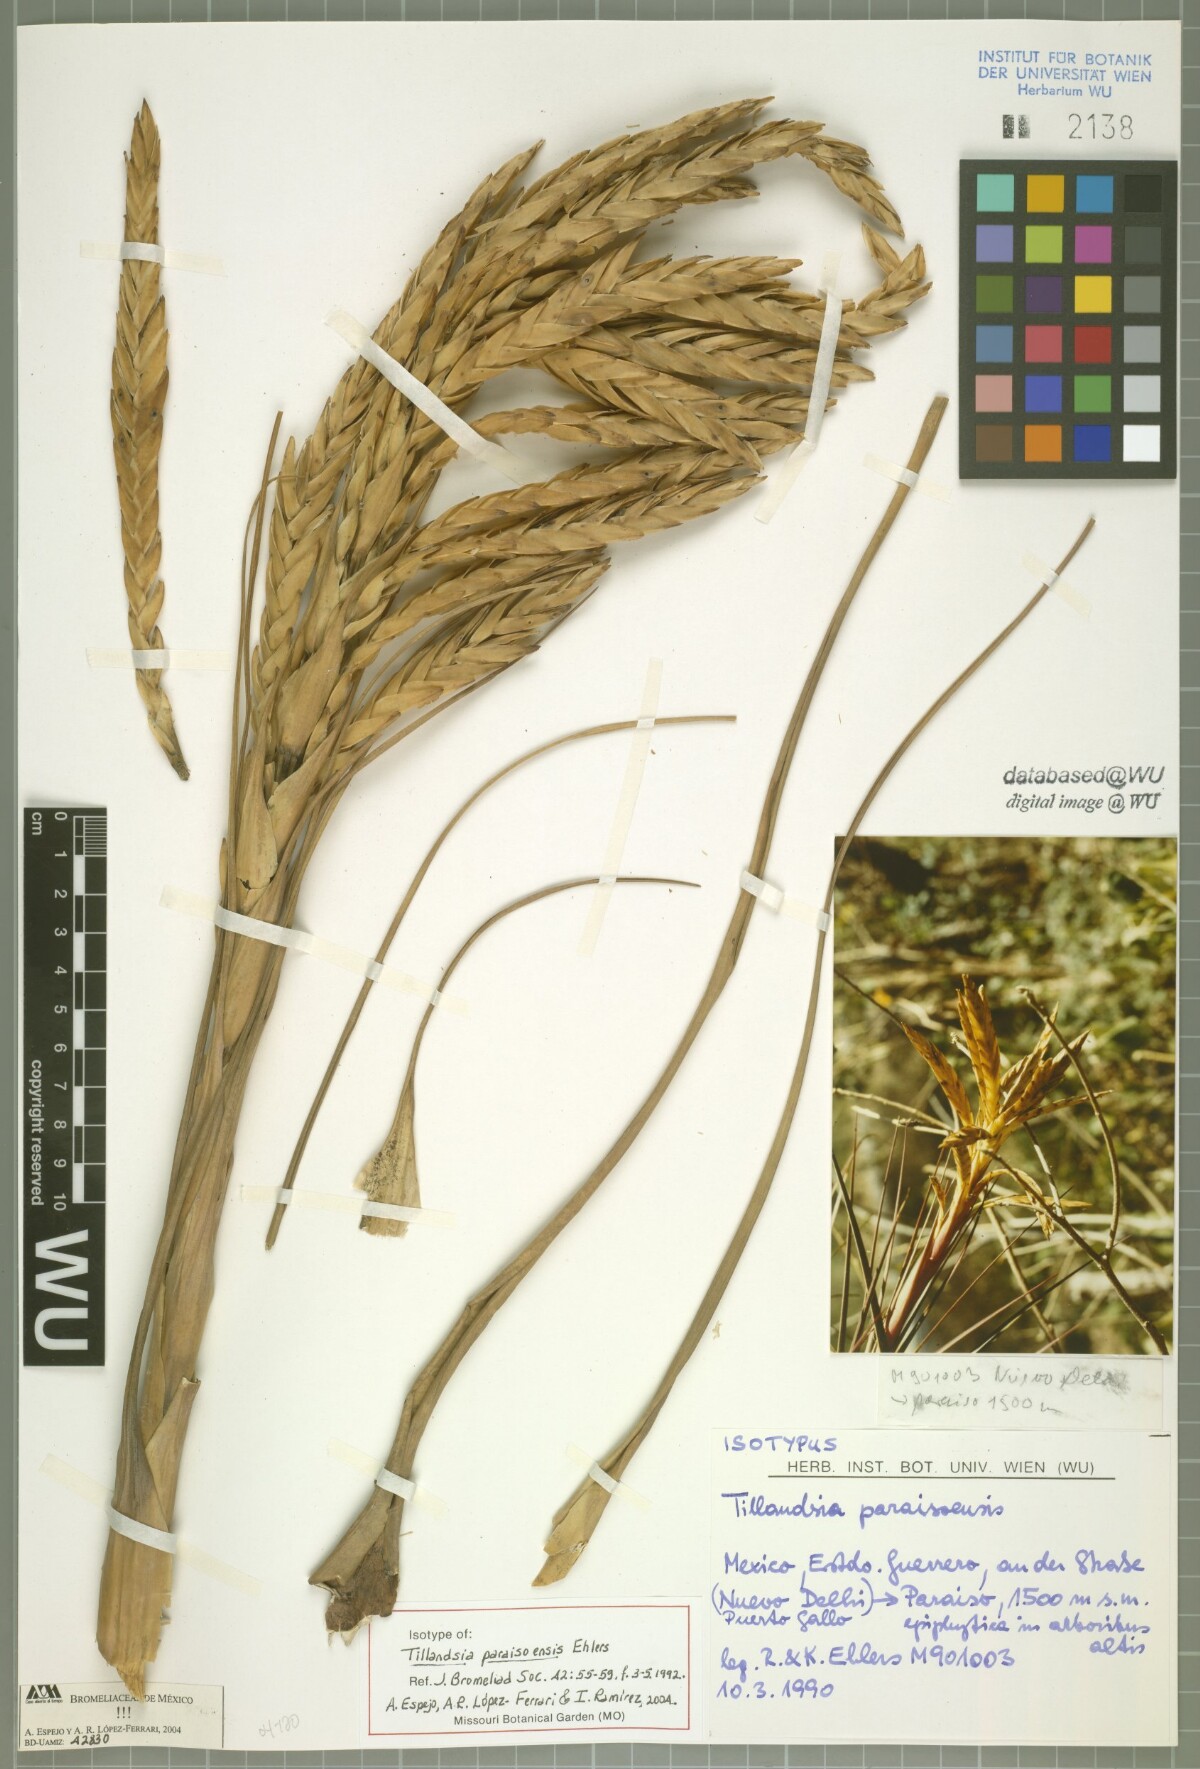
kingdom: Plantae
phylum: Tracheophyta
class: Liliopsida
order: Poales
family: Bromeliaceae
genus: Tillandsia
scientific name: Tillandsia paraisoensis
